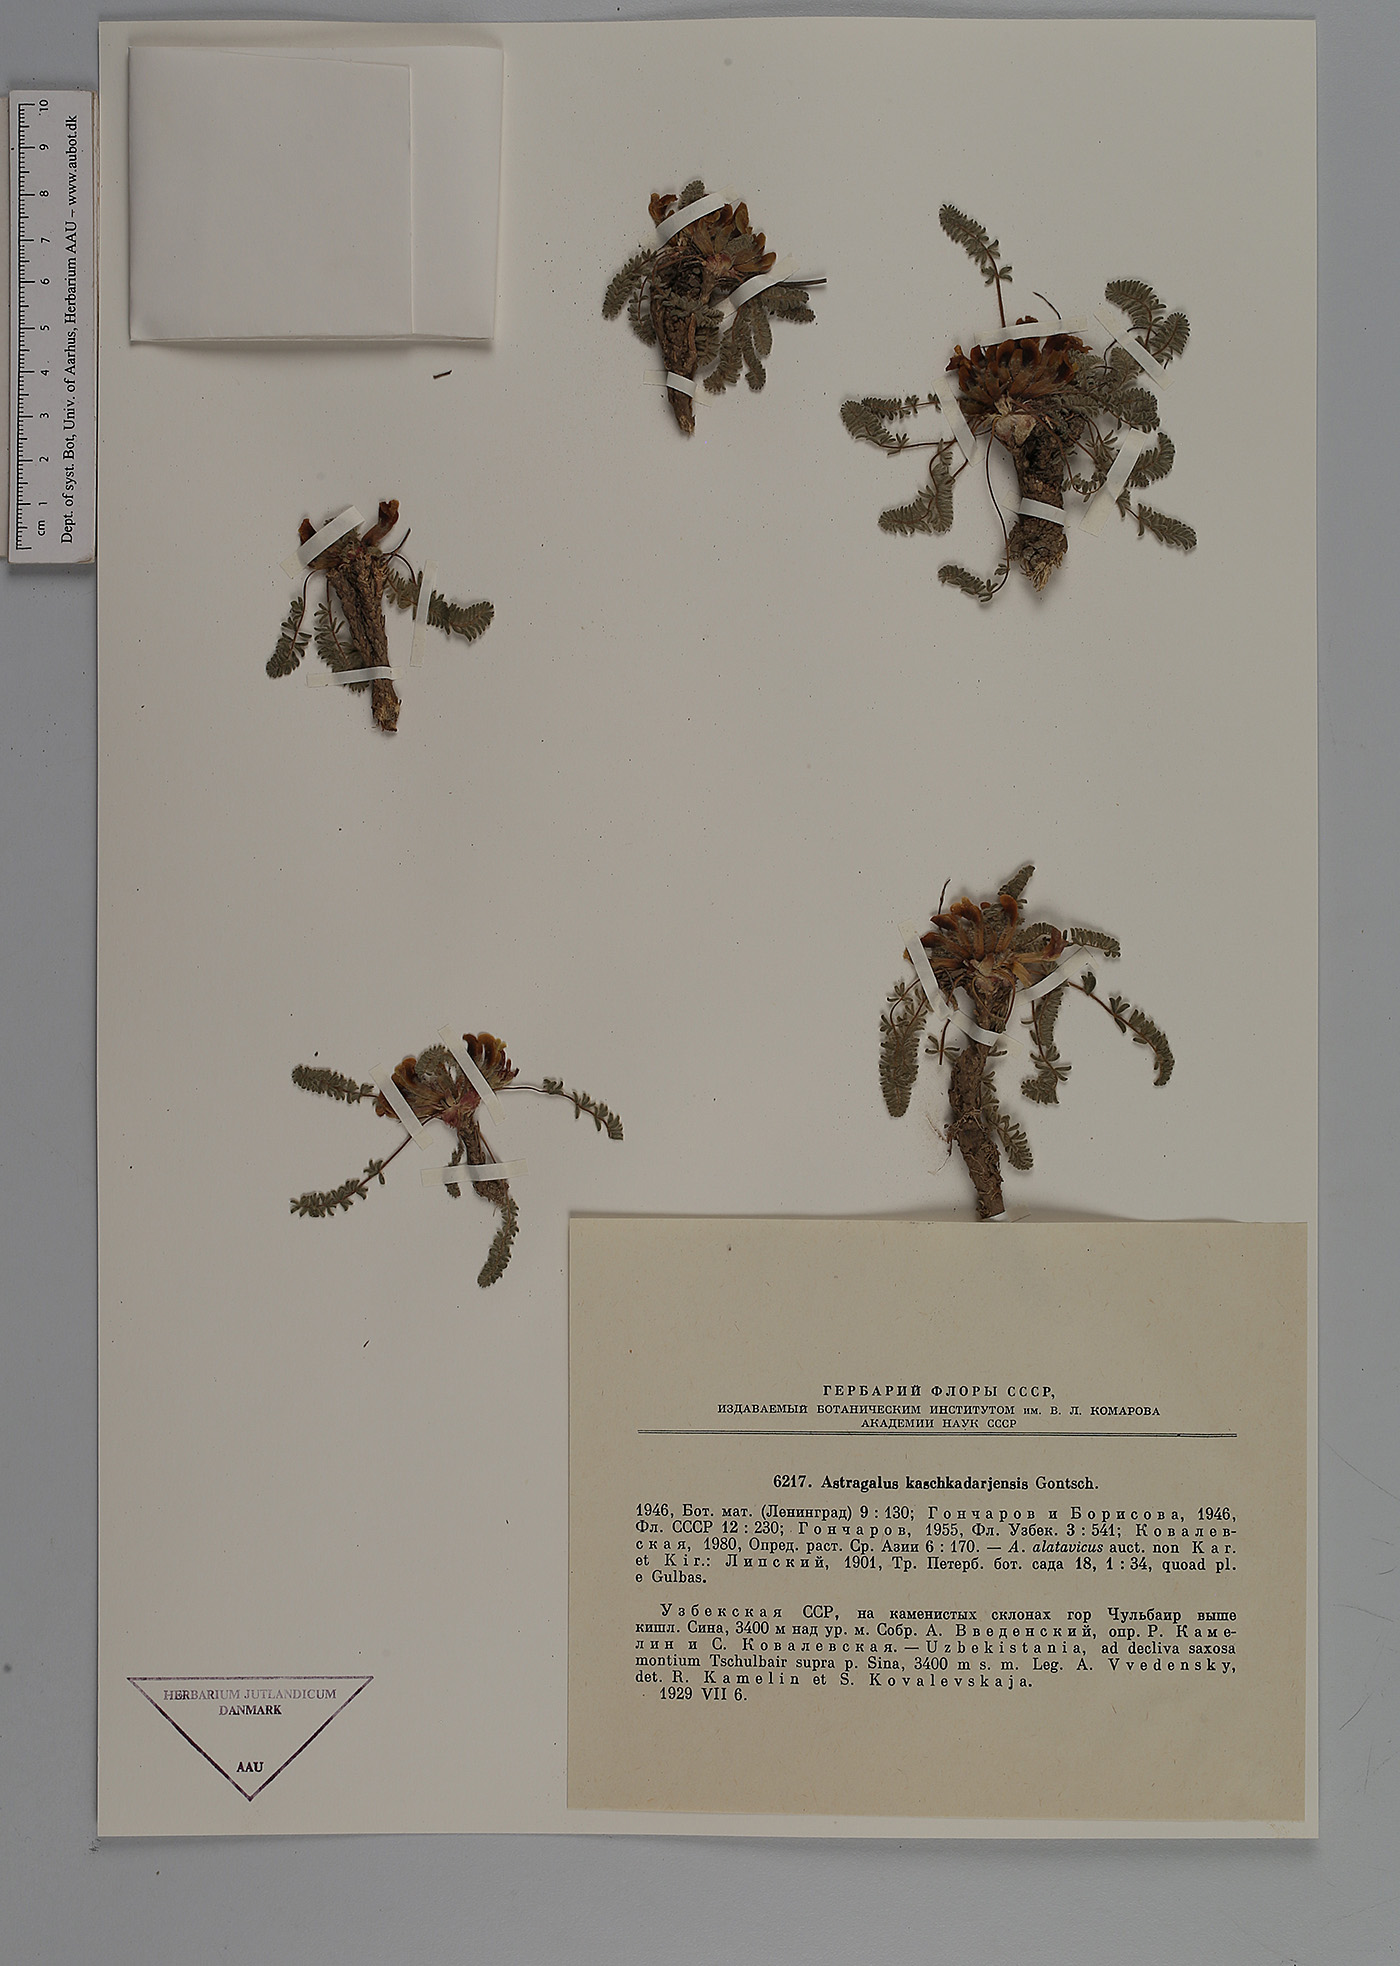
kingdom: Plantae
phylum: Tracheophyta
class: Magnoliopsida
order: Fabales
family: Fabaceae
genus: Astragalus
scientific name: Astragalus kaschkadarjensis
